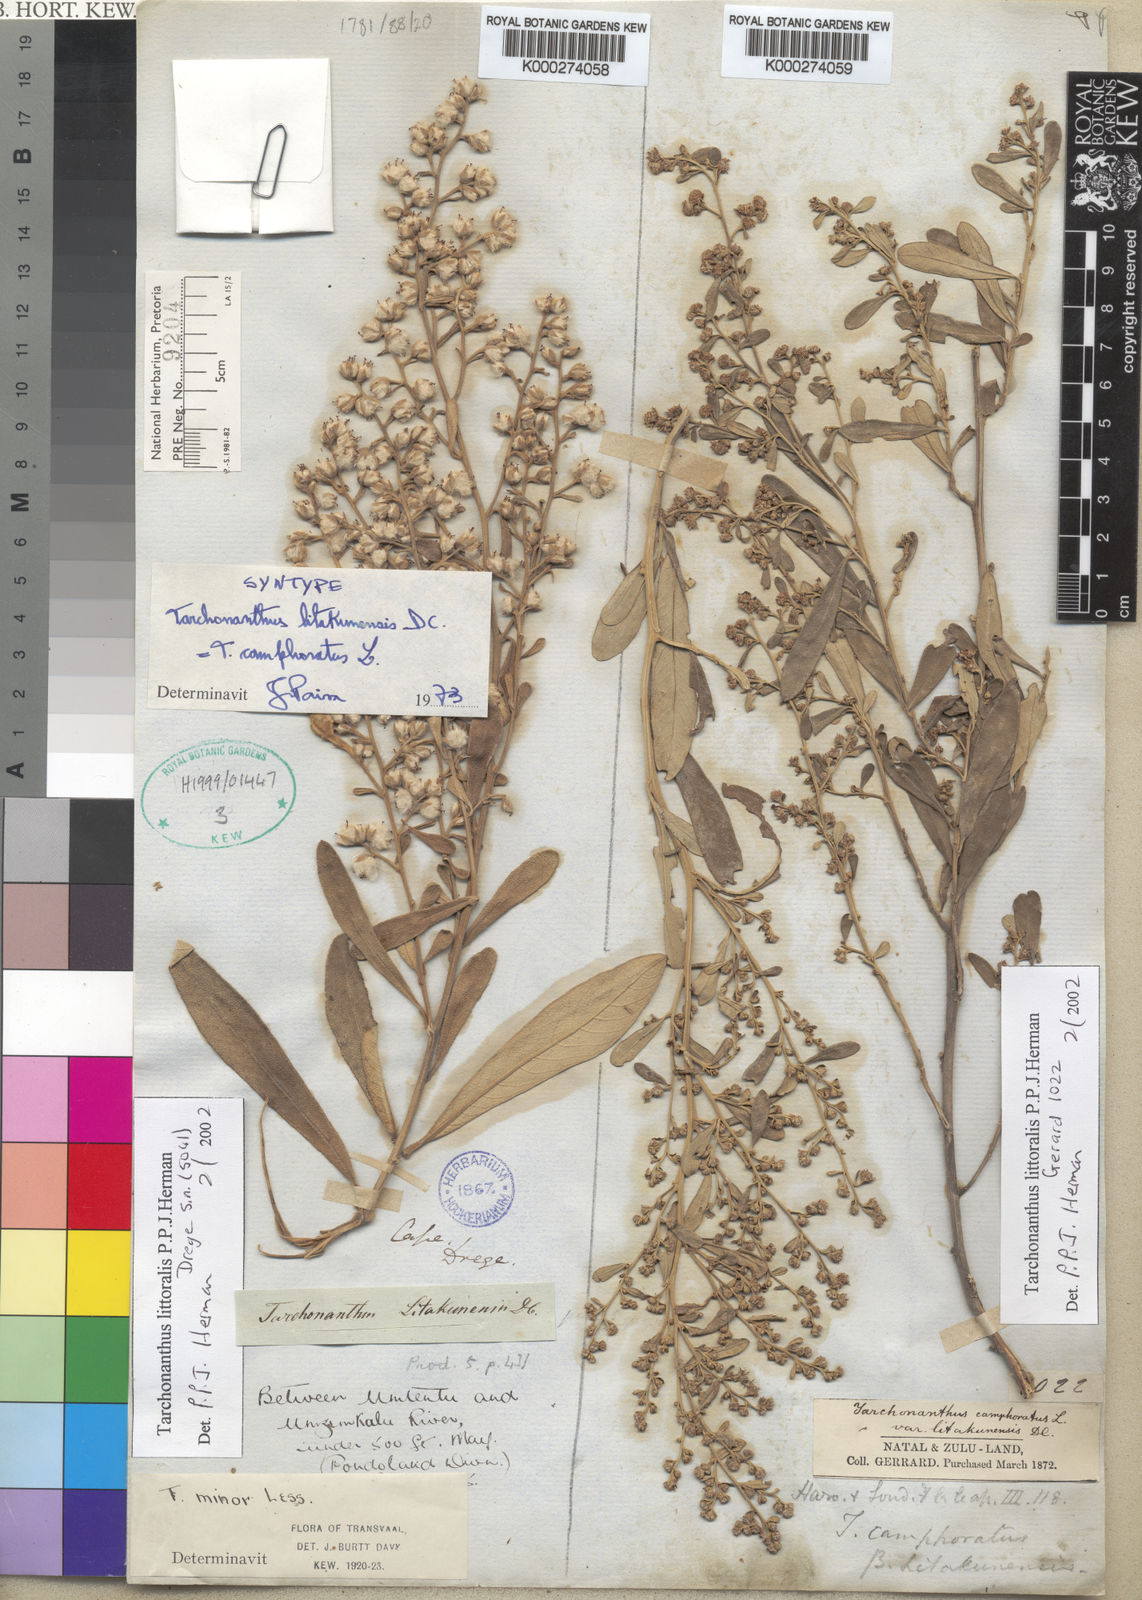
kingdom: Plantae
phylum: Tracheophyta
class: Magnoliopsida
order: Asterales
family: Asteraceae
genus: Tarchonanthus
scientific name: Tarchonanthus littoralis
